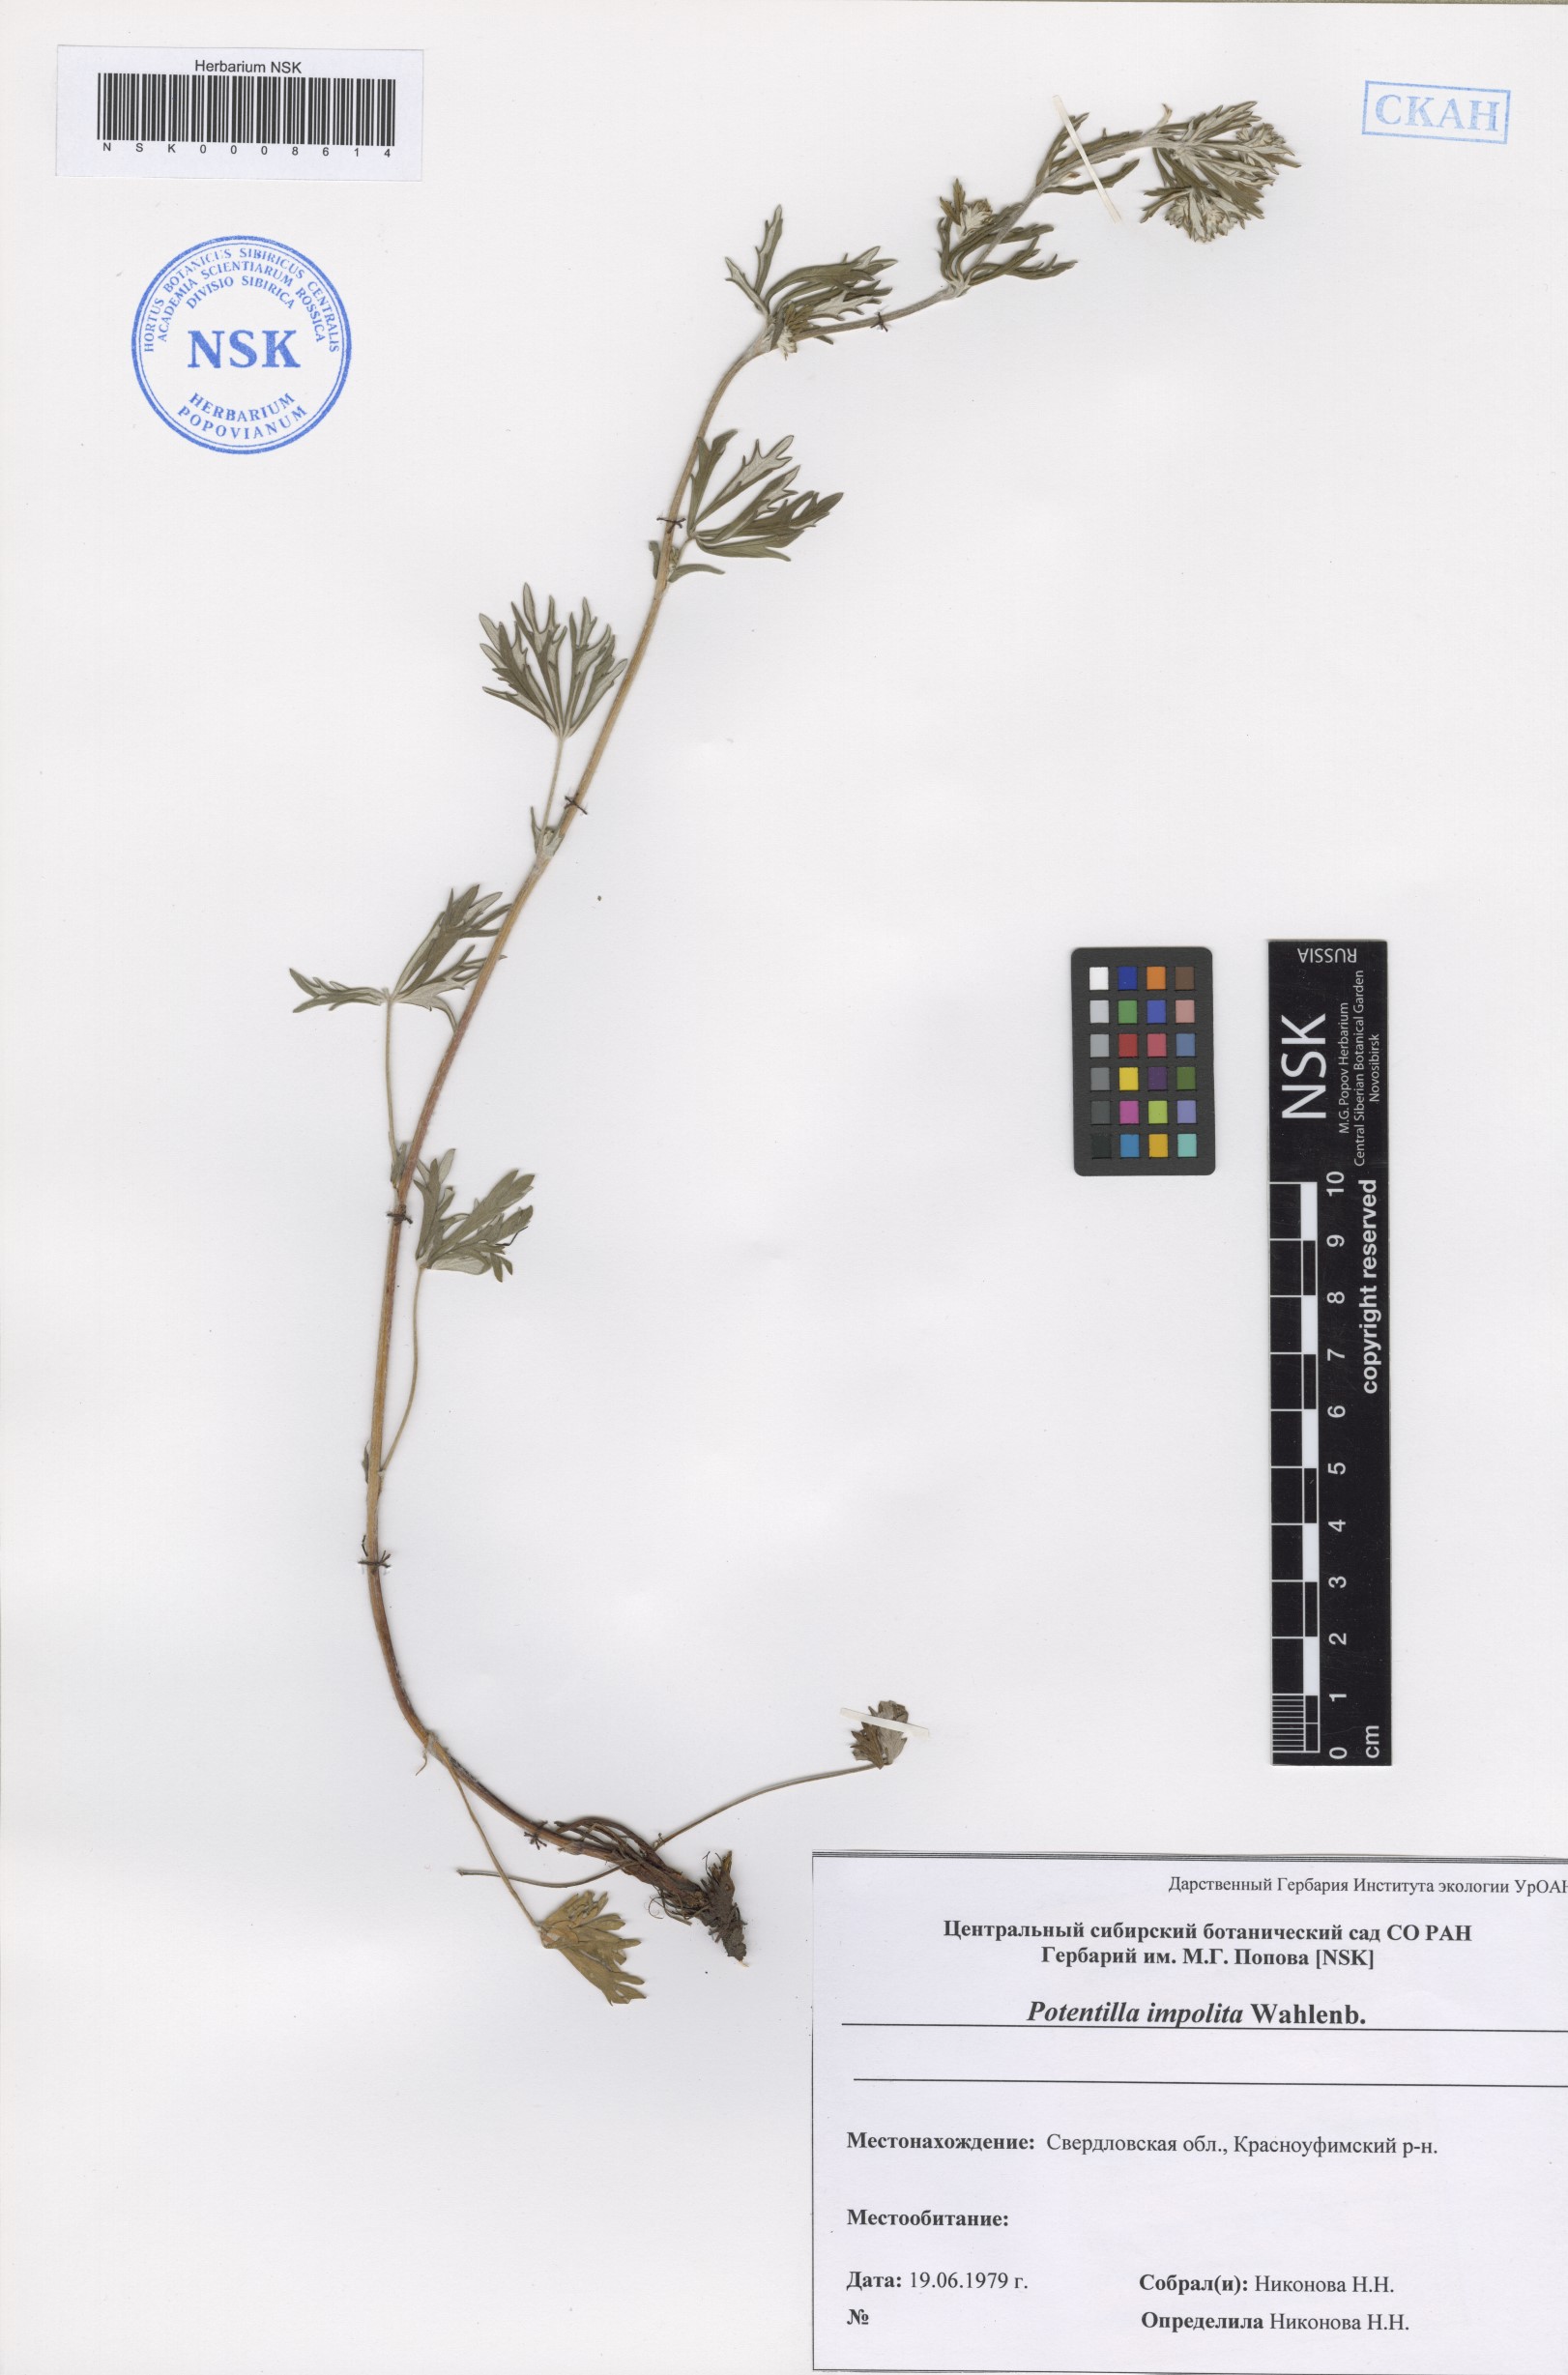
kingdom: Plantae
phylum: Tracheophyta
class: Magnoliopsida
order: Rosales
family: Rosaceae
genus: Potentilla
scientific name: Potentilla inclinata
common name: Grey cinquefoil
